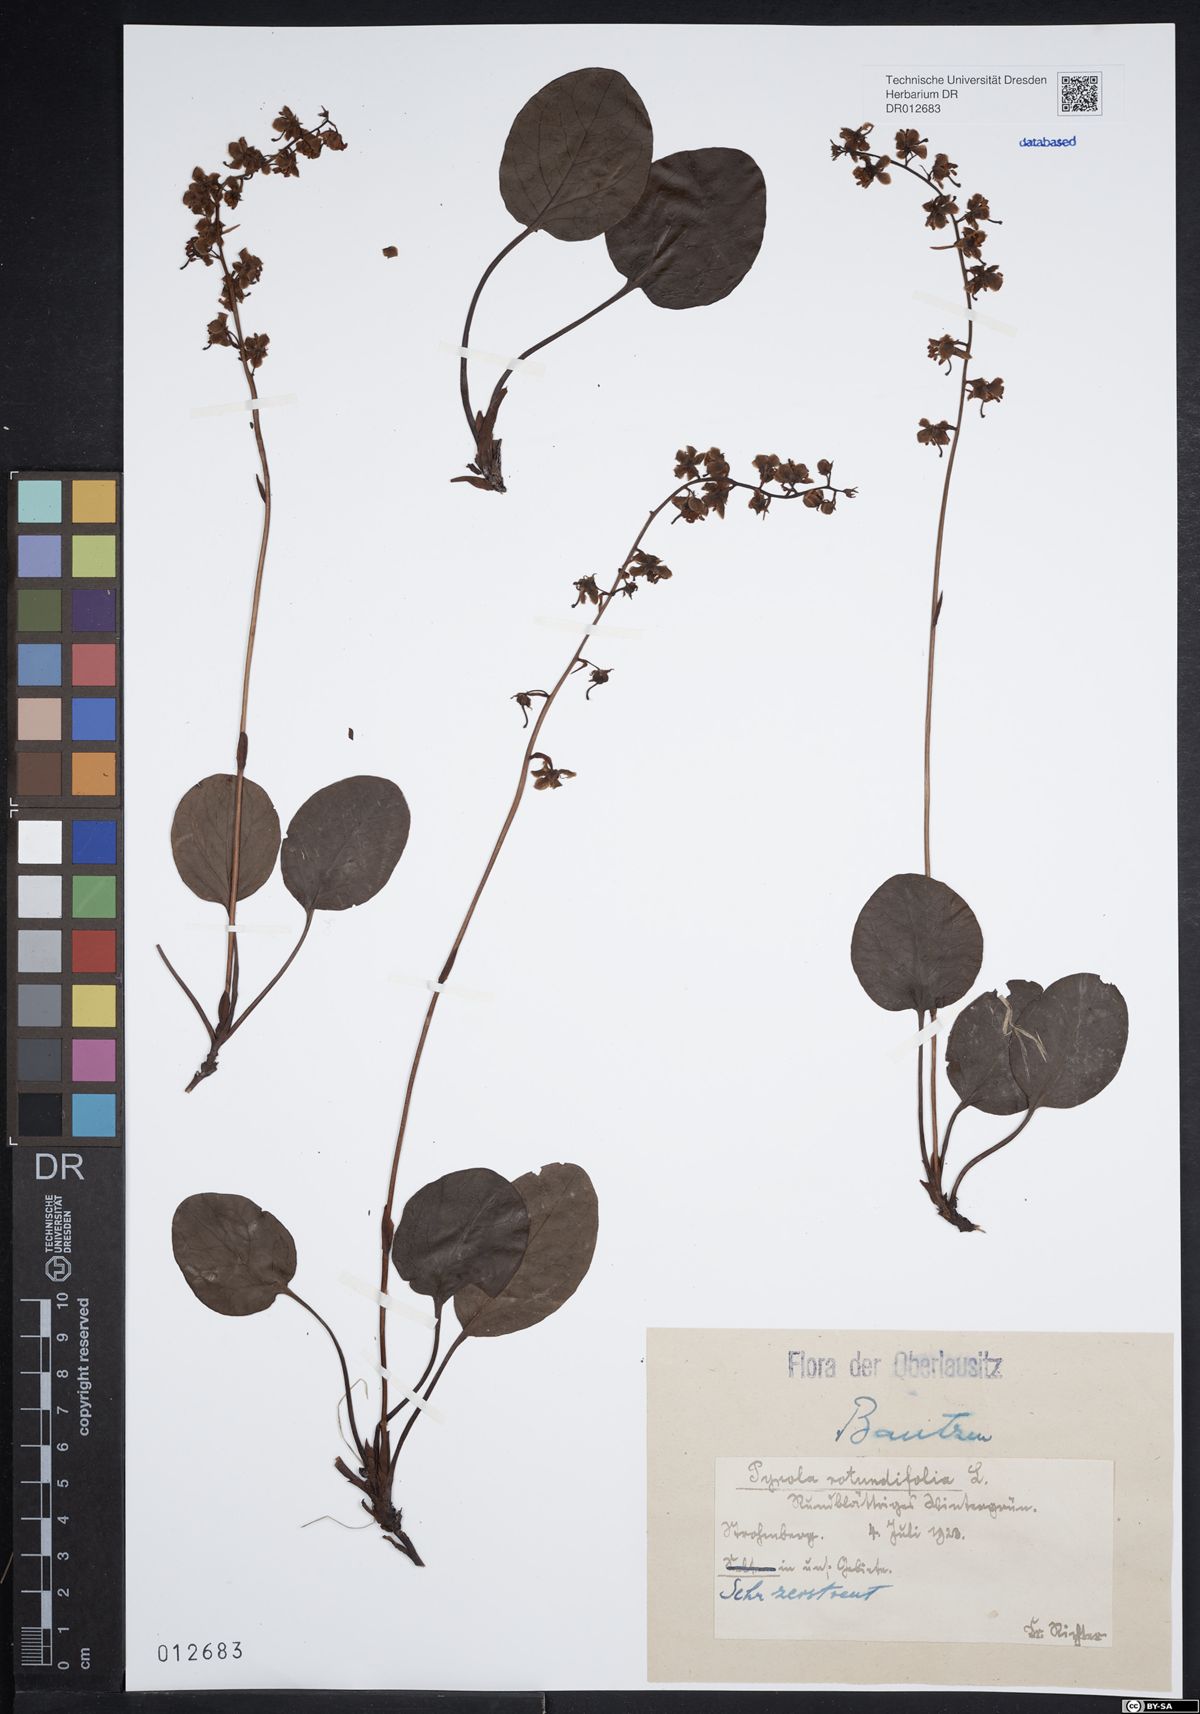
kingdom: Plantae
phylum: Tracheophyta
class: Magnoliopsida
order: Ericales
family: Ericaceae
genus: Pyrola
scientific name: Pyrola rotundifolia
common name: Round-leaved wintergreen
